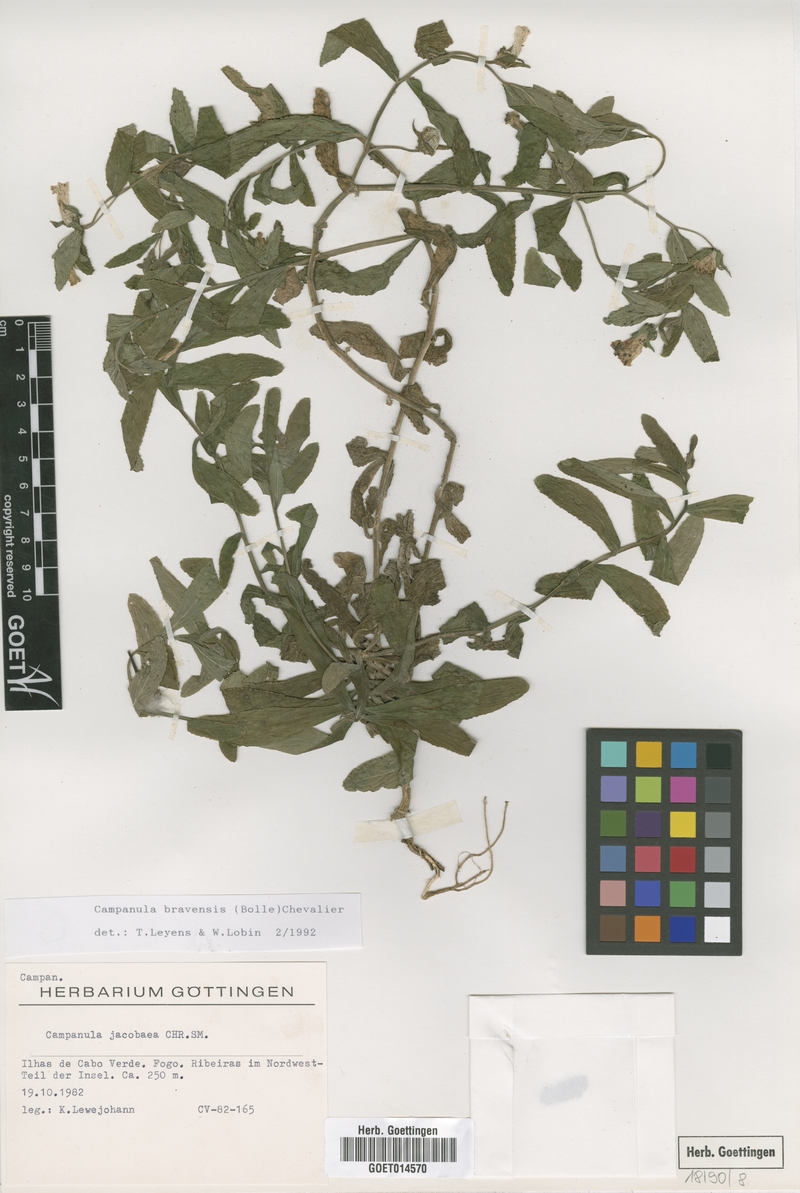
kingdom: Plantae
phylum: Tracheophyta
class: Magnoliopsida
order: Asterales
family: Campanulaceae
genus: Campanula
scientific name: Campanula bravensis
